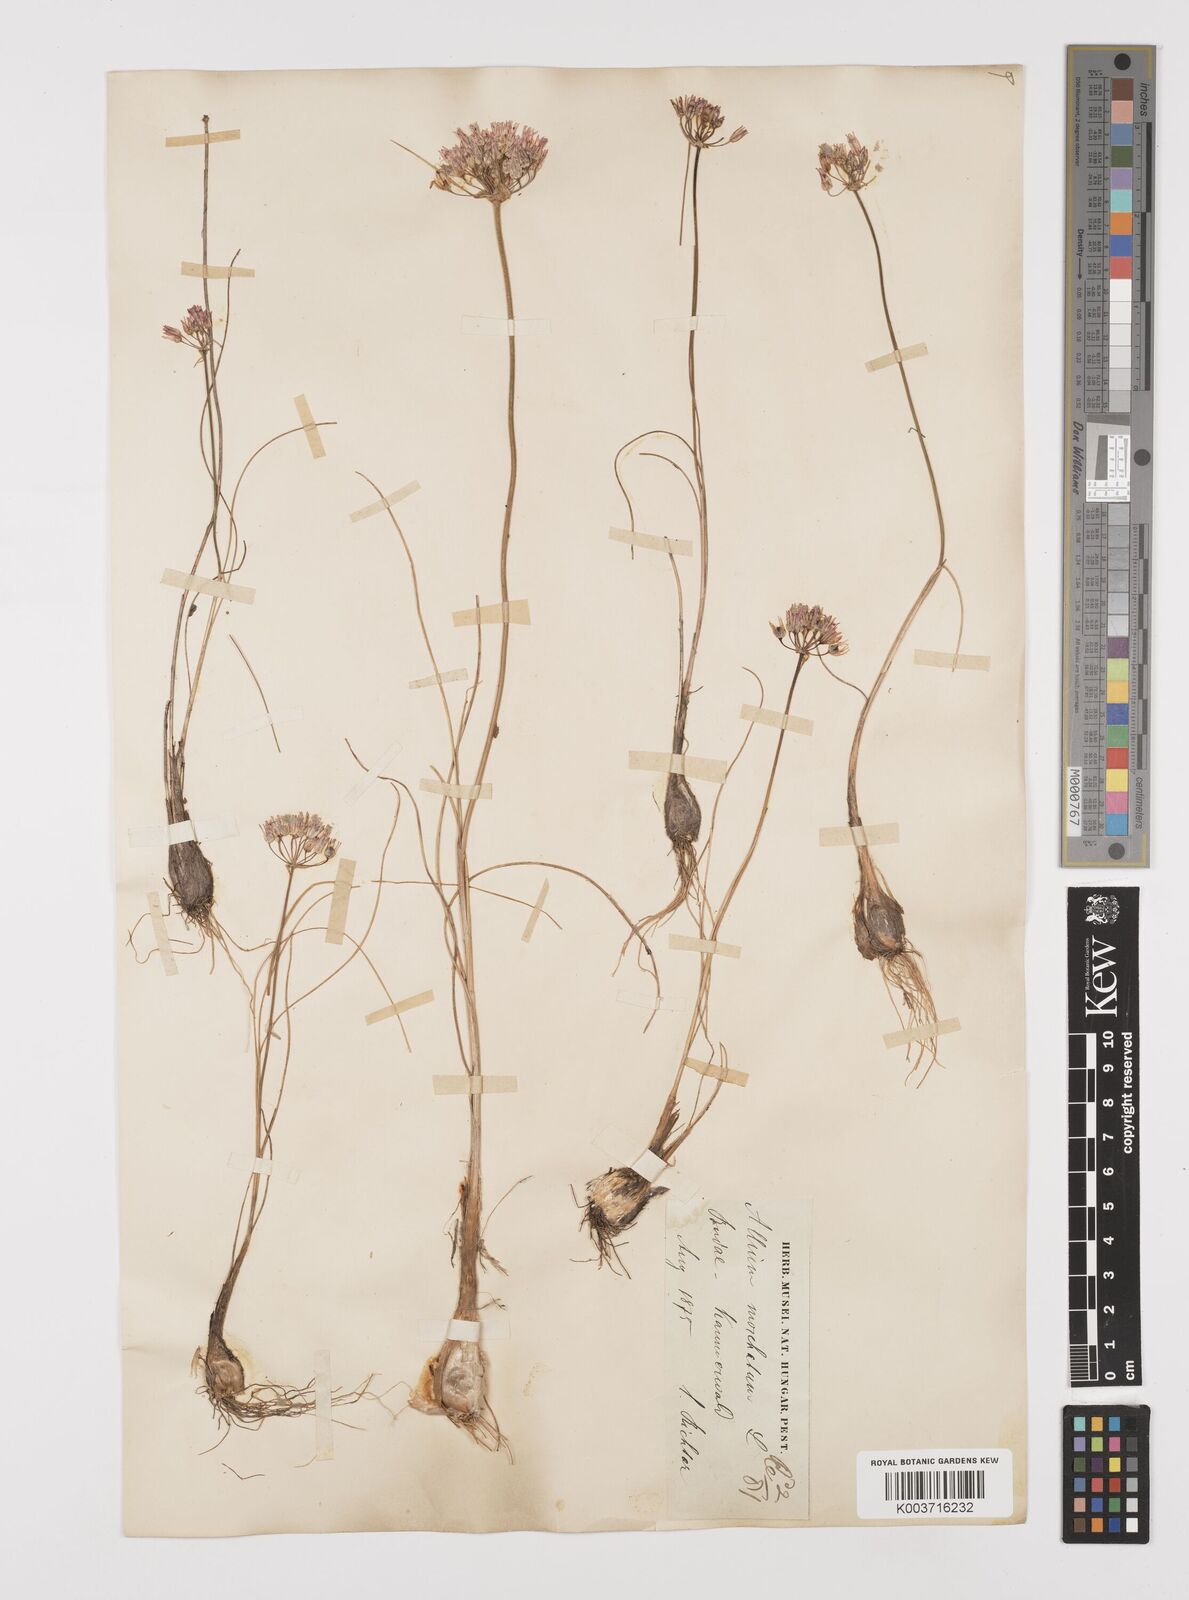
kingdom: Plantae
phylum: Tracheophyta
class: Liliopsida
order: Asparagales
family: Amaryllidaceae
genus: Allium
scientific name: Allium moschatum
